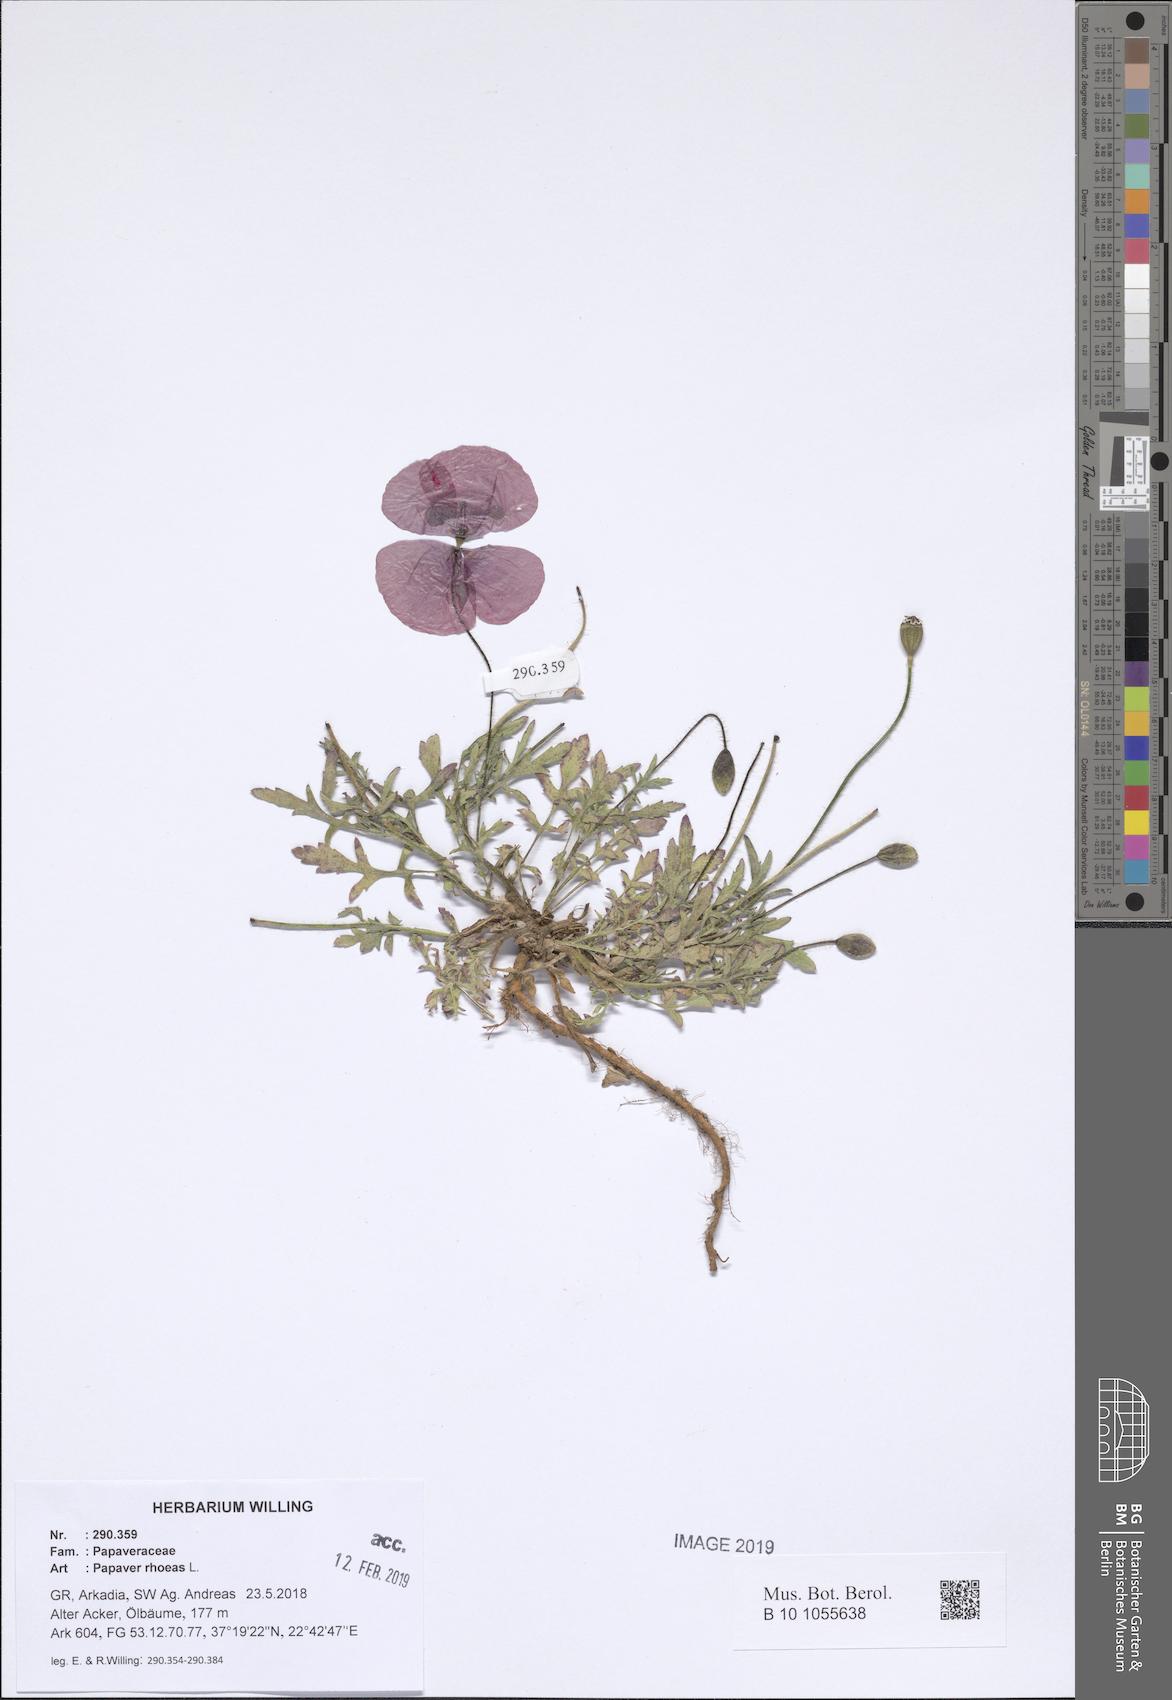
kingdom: Plantae
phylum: Tracheophyta
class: Magnoliopsida
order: Ranunculales
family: Papaveraceae
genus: Papaver
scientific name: Papaver rhoeas
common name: Corn poppy
